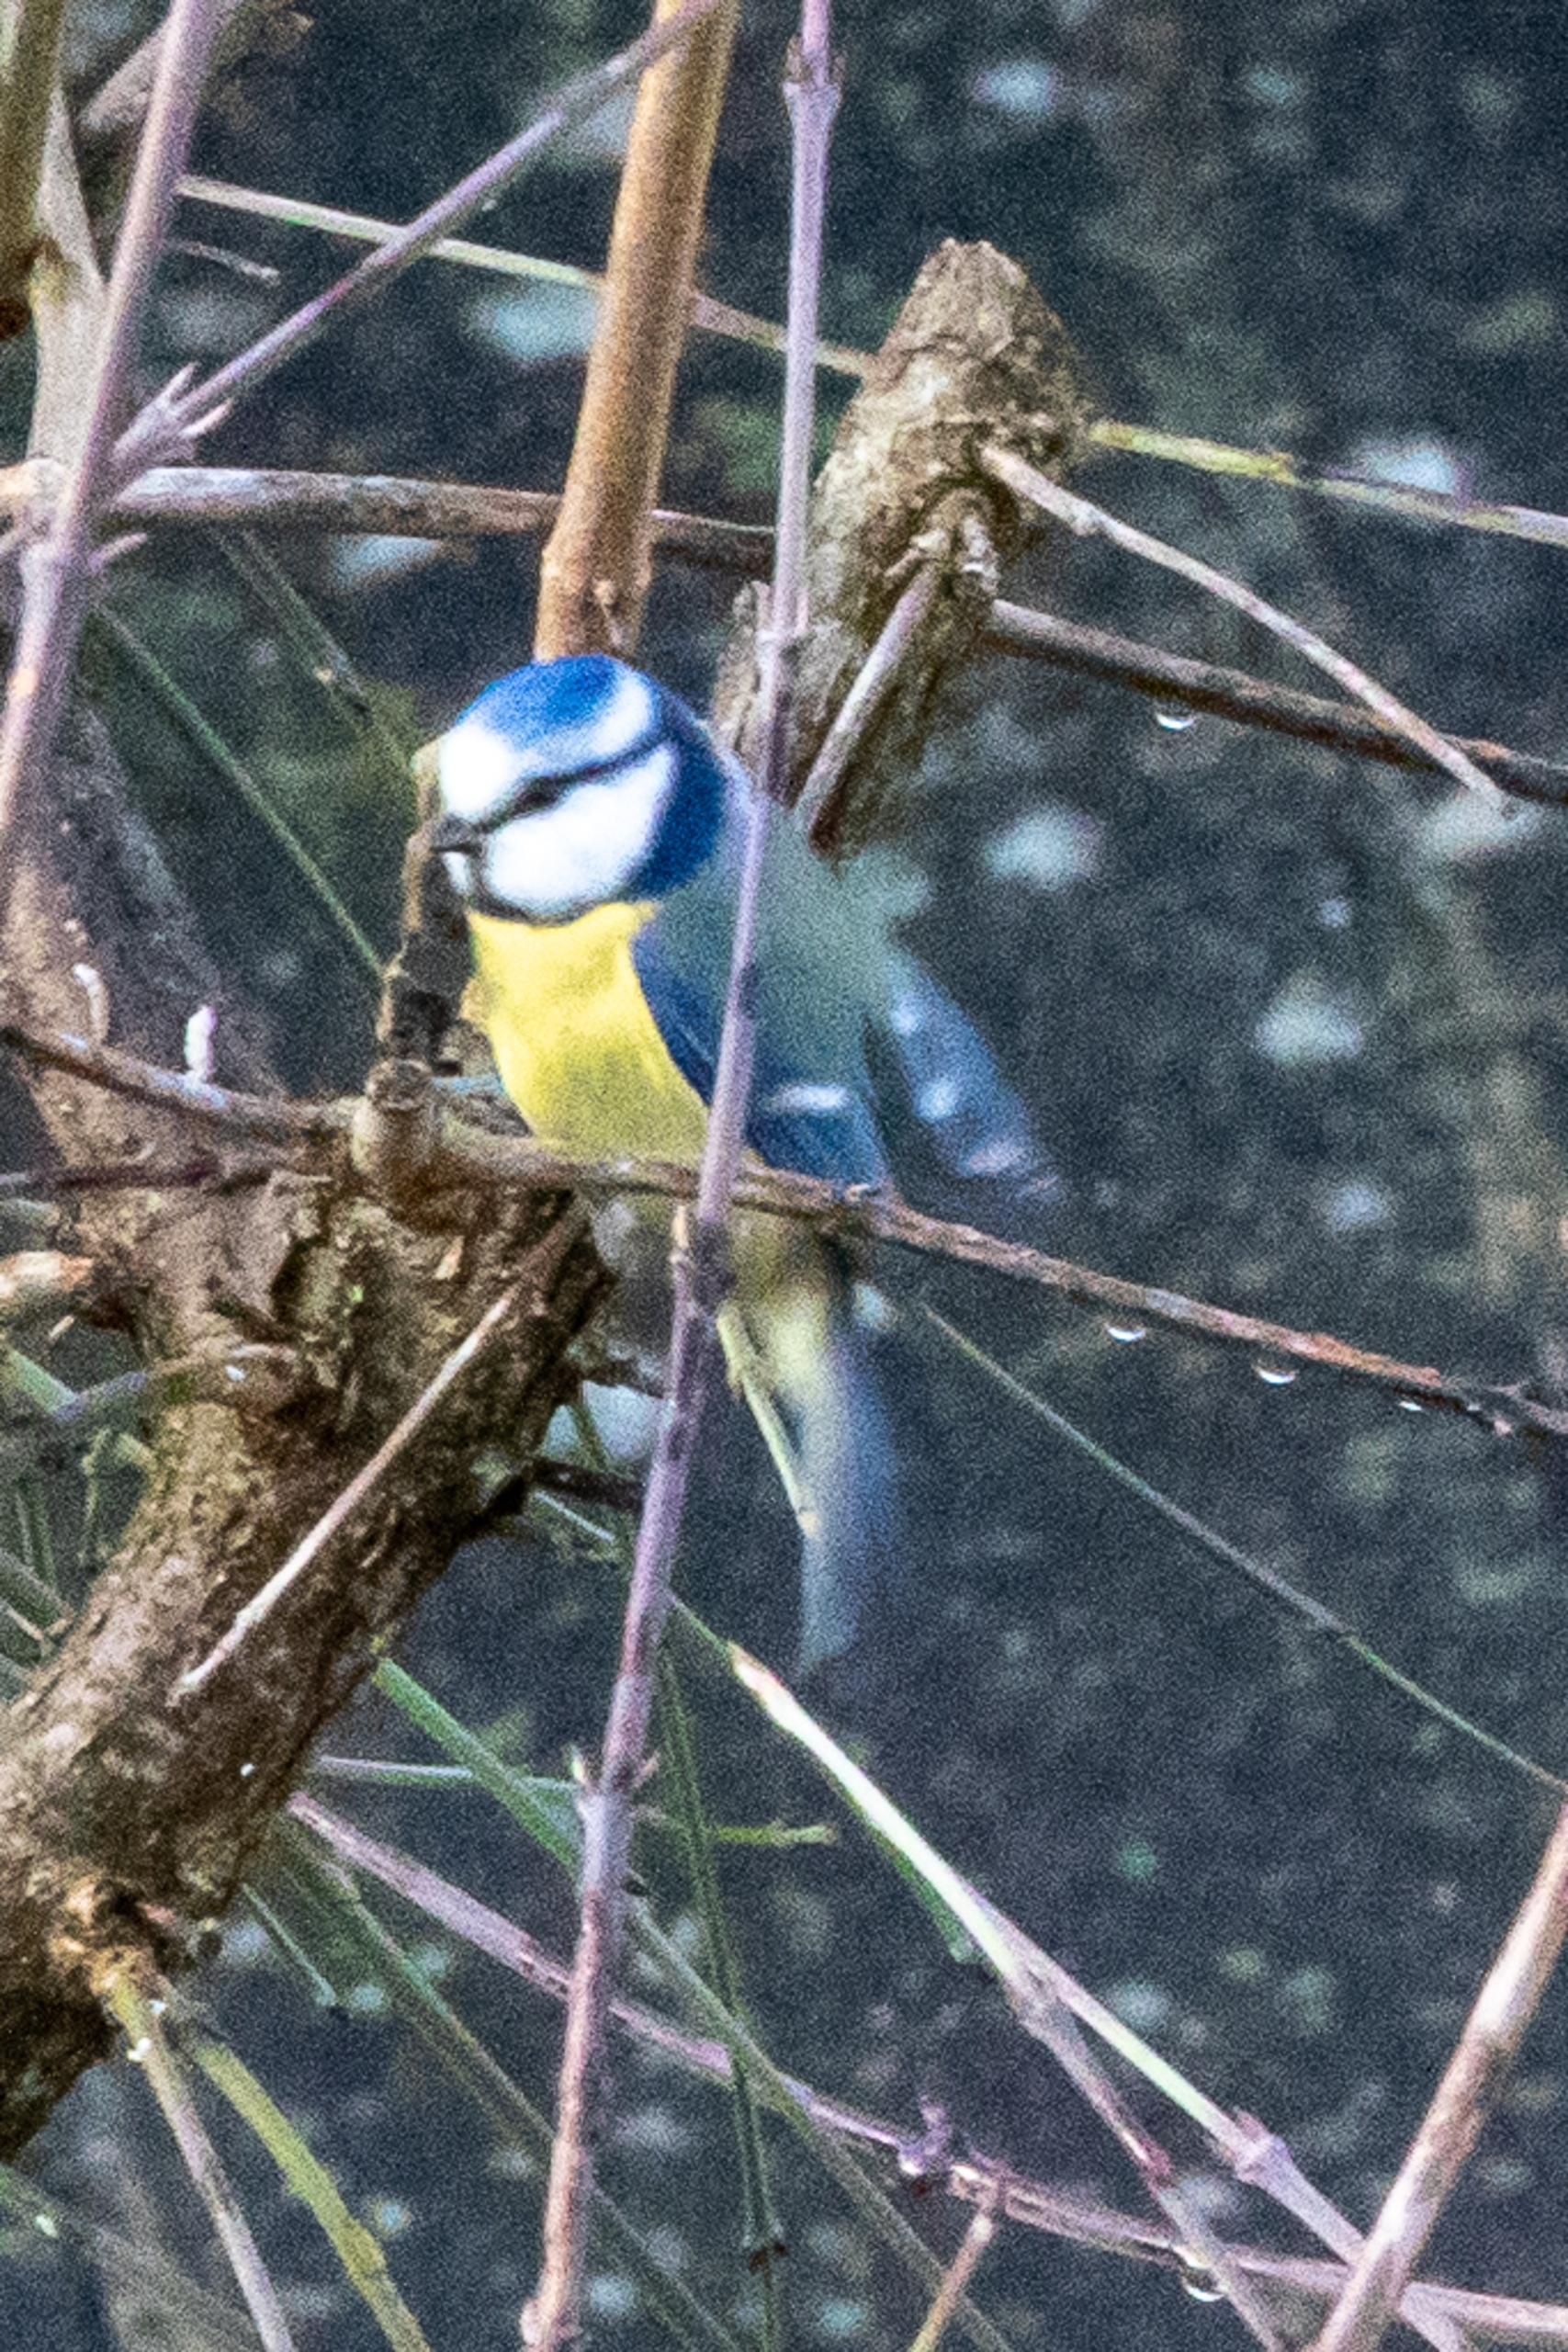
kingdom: Animalia
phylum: Chordata
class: Aves
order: Passeriformes
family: Paridae
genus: Cyanistes
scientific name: Cyanistes caeruleus
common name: Blåmejse
